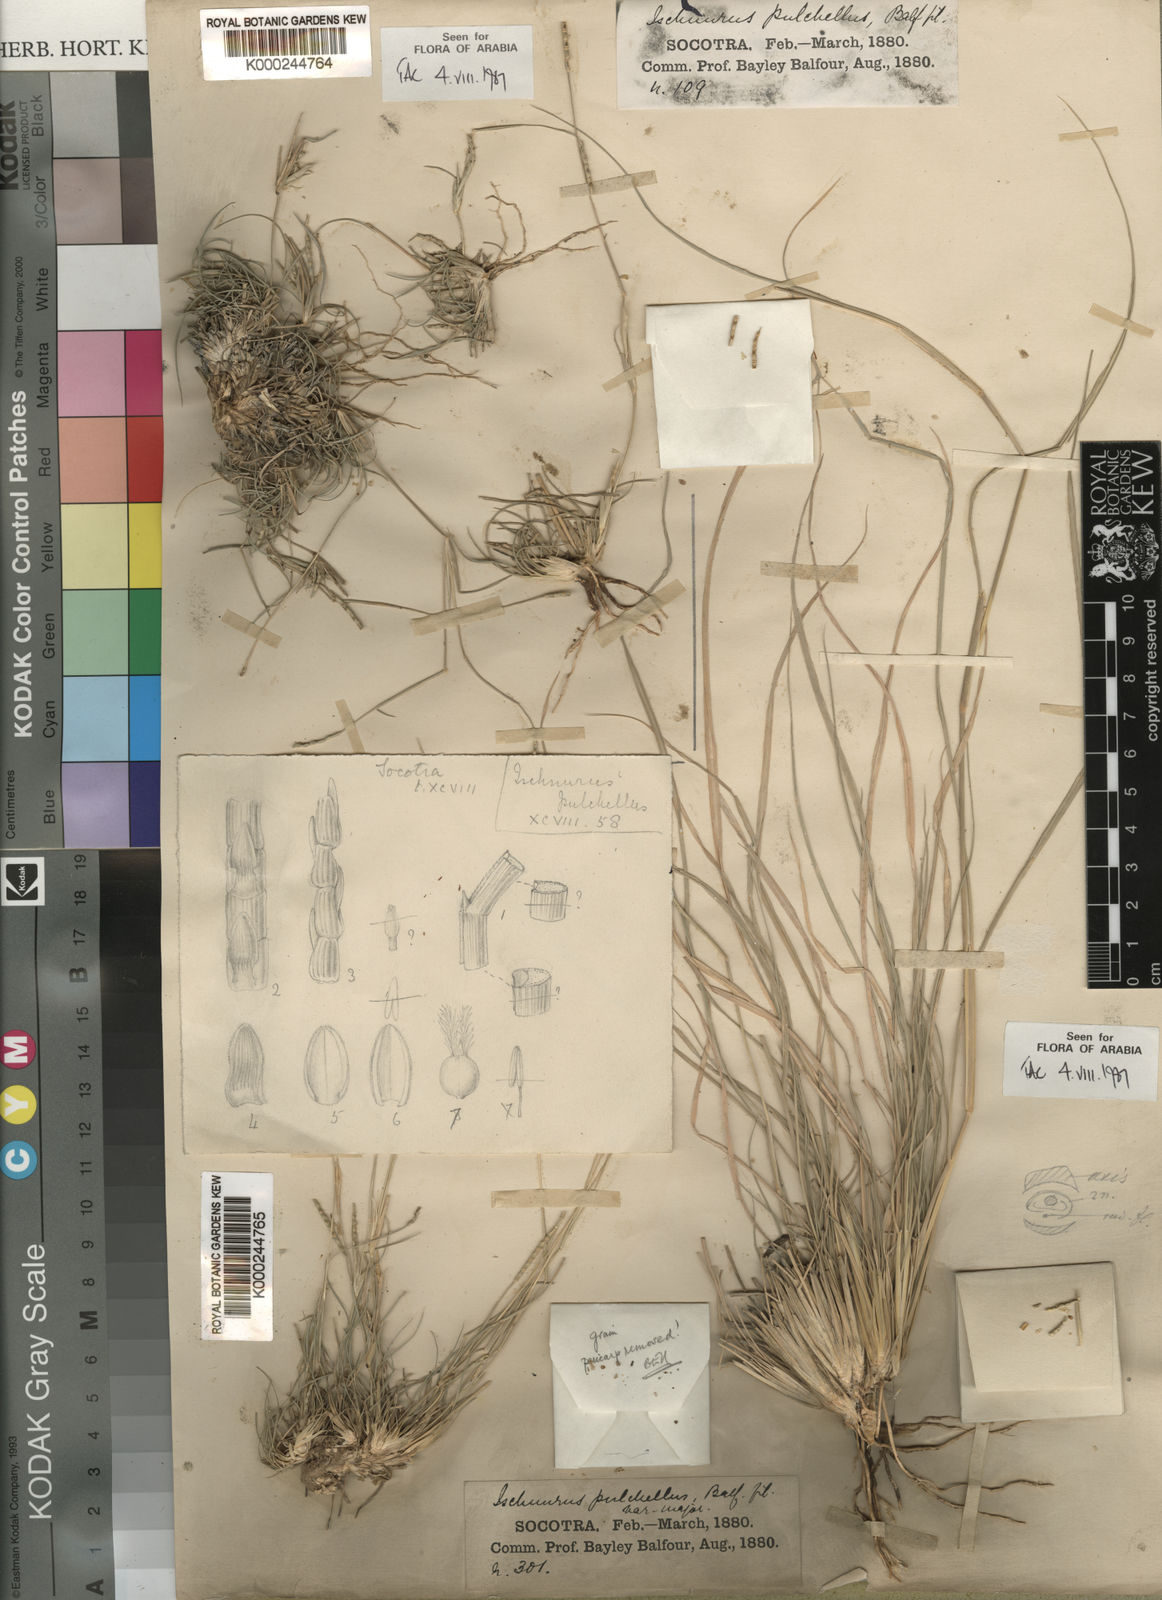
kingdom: Plantae
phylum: Tracheophyta
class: Liliopsida
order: Poales
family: Poaceae
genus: Lepturus
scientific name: Lepturus pulchellus
